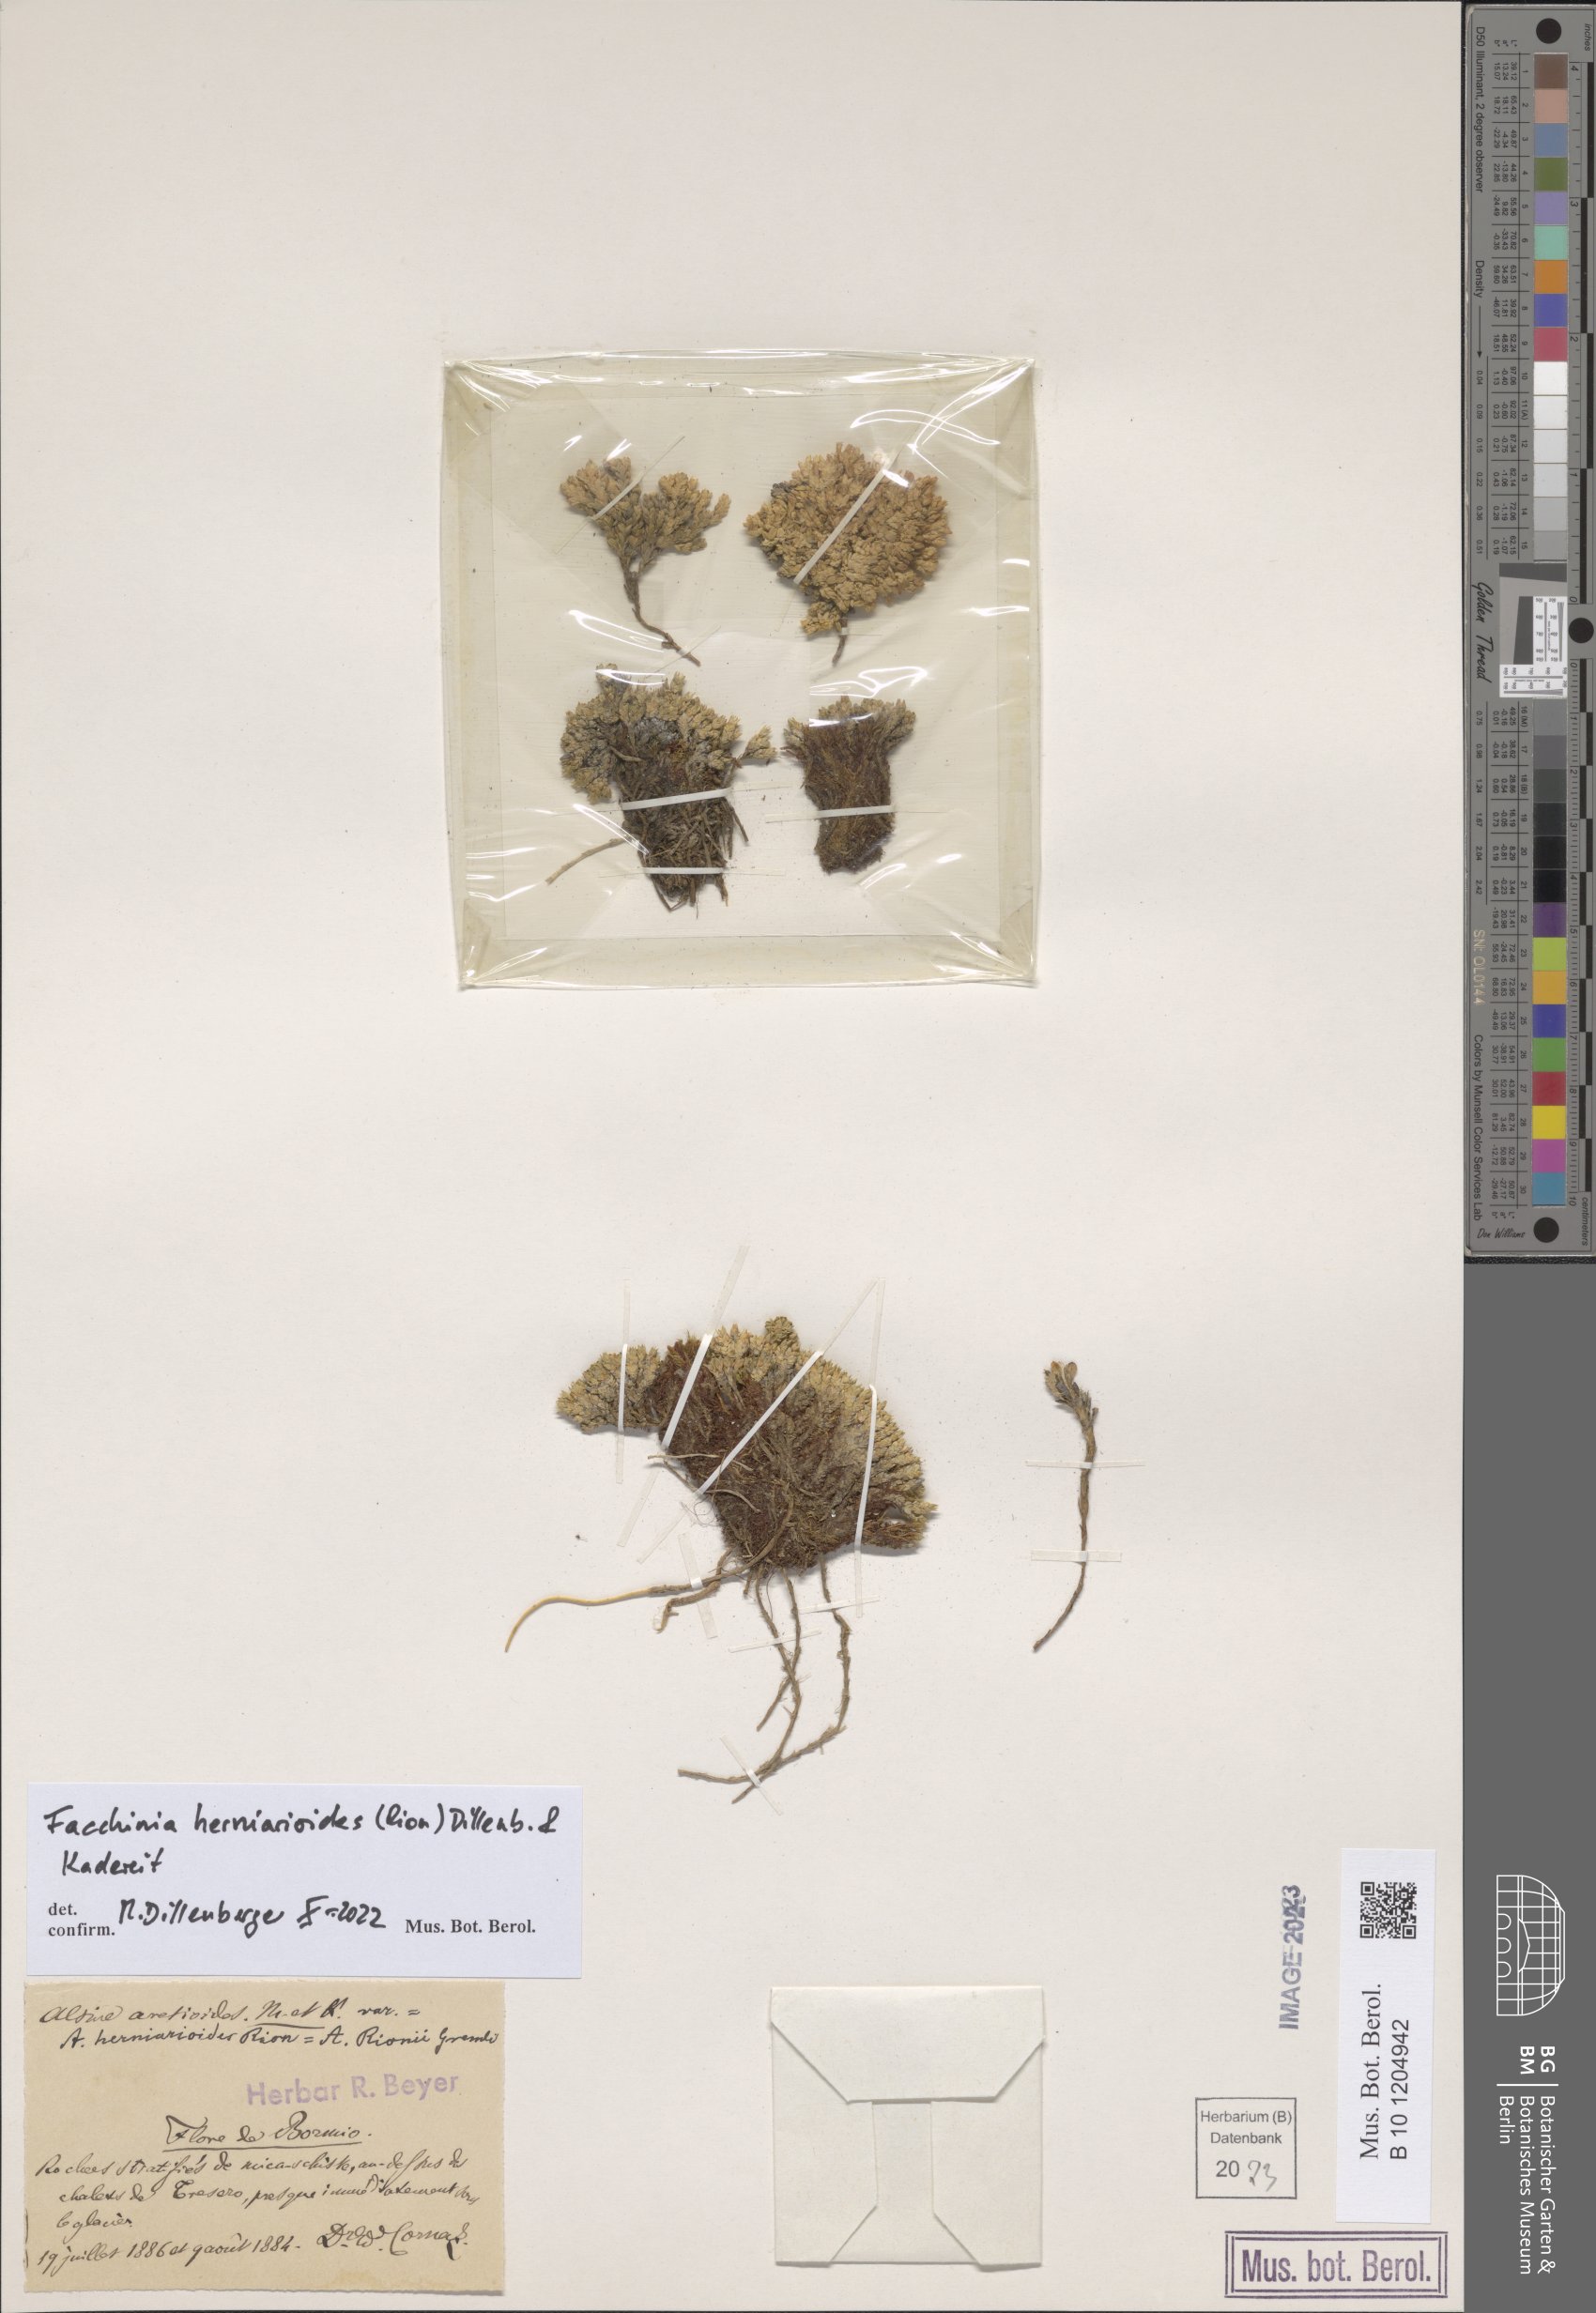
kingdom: Plantae
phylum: Tracheophyta
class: Magnoliopsida
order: Caryophyllales
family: Caryophyllaceae
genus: Facchinia
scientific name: Facchinia herniarioides
